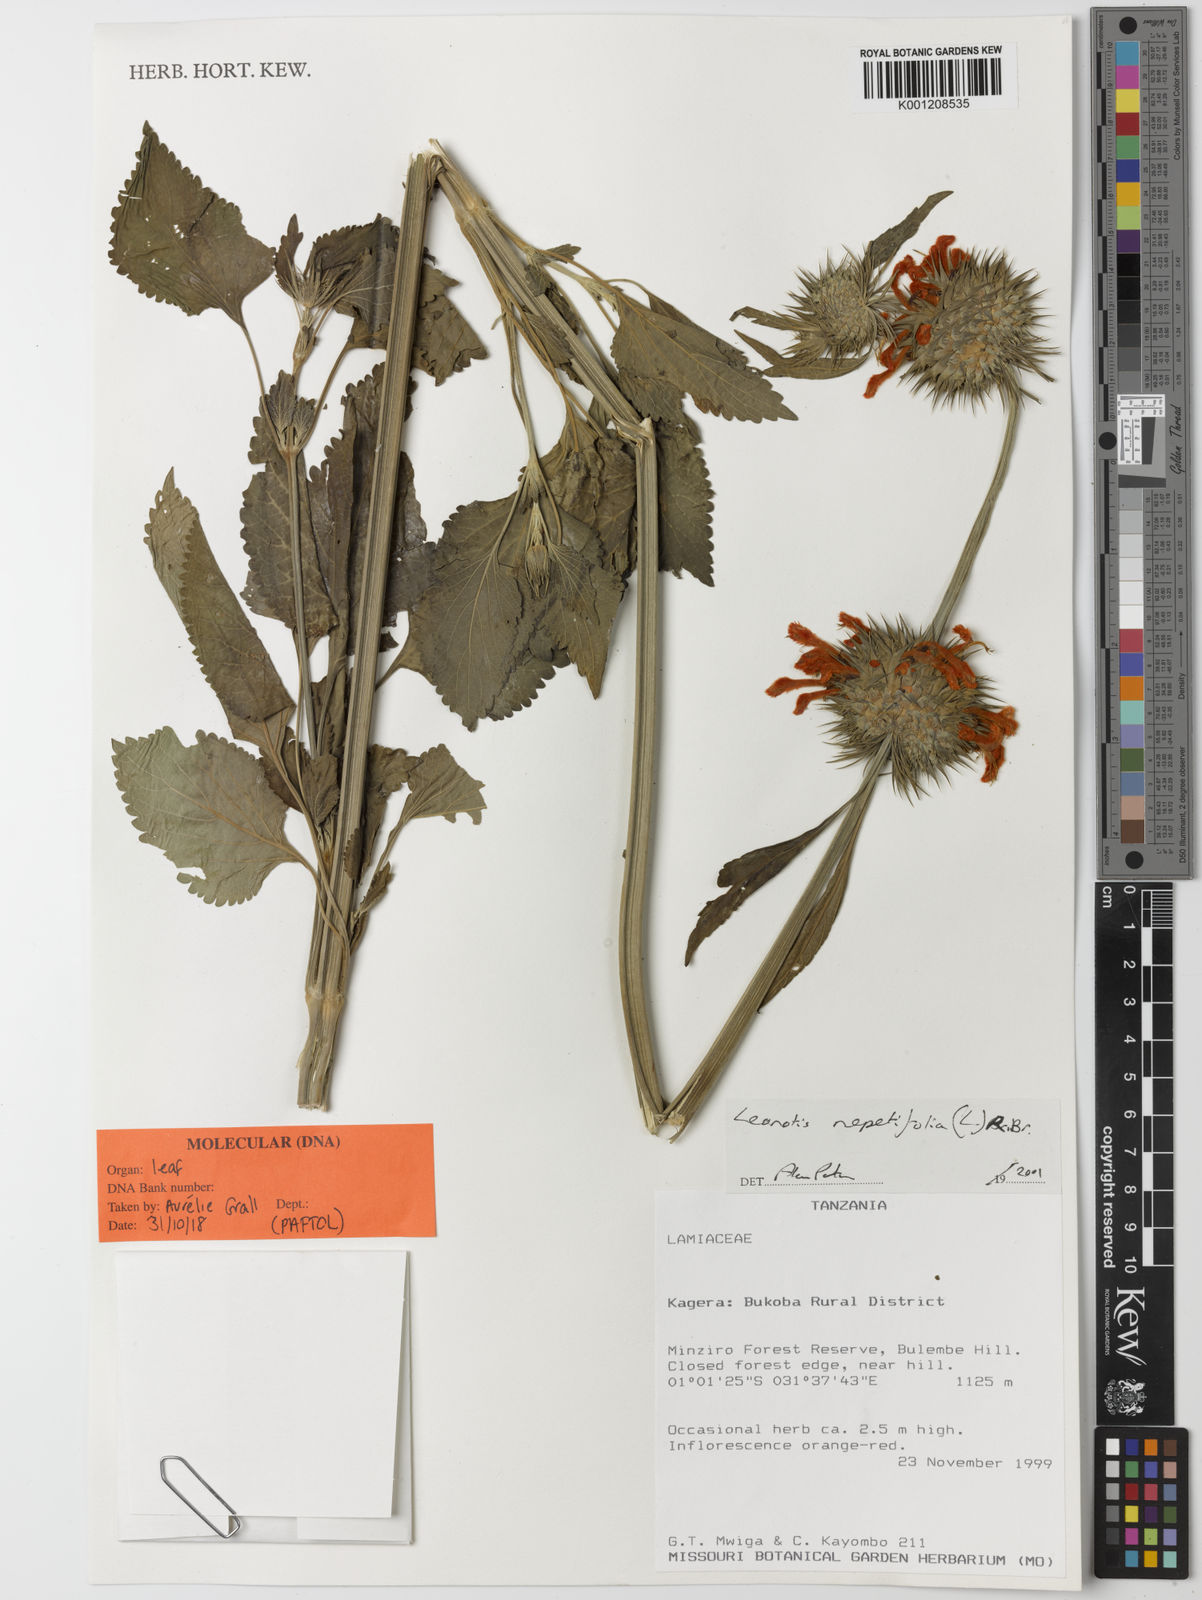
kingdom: Plantae
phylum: Tracheophyta
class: Magnoliopsida
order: Lamiales
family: Lamiaceae
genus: Leonotis
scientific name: Leonotis nepetifolia
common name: Christmas candlestick
